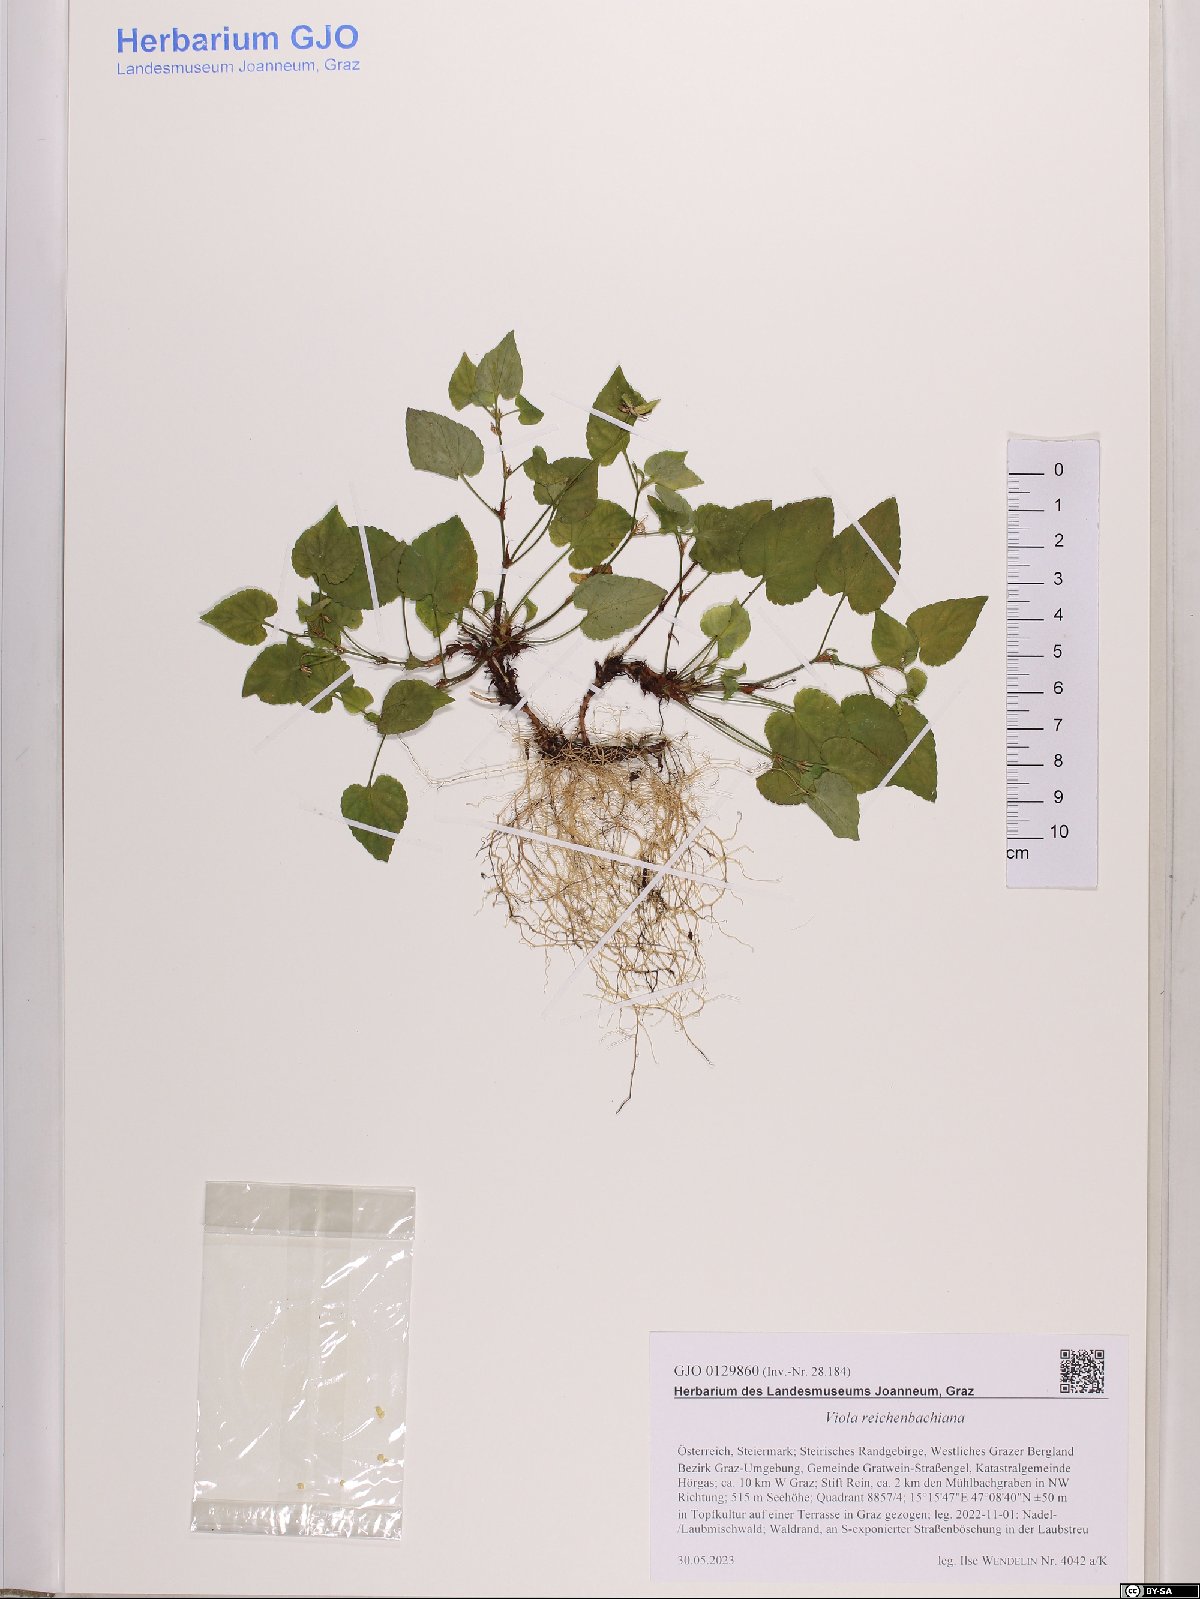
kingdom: Plantae
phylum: Tracheophyta
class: Magnoliopsida
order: Malpighiales
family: Violaceae
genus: Viola
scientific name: Viola reichenbachiana
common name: Early dog-violet
